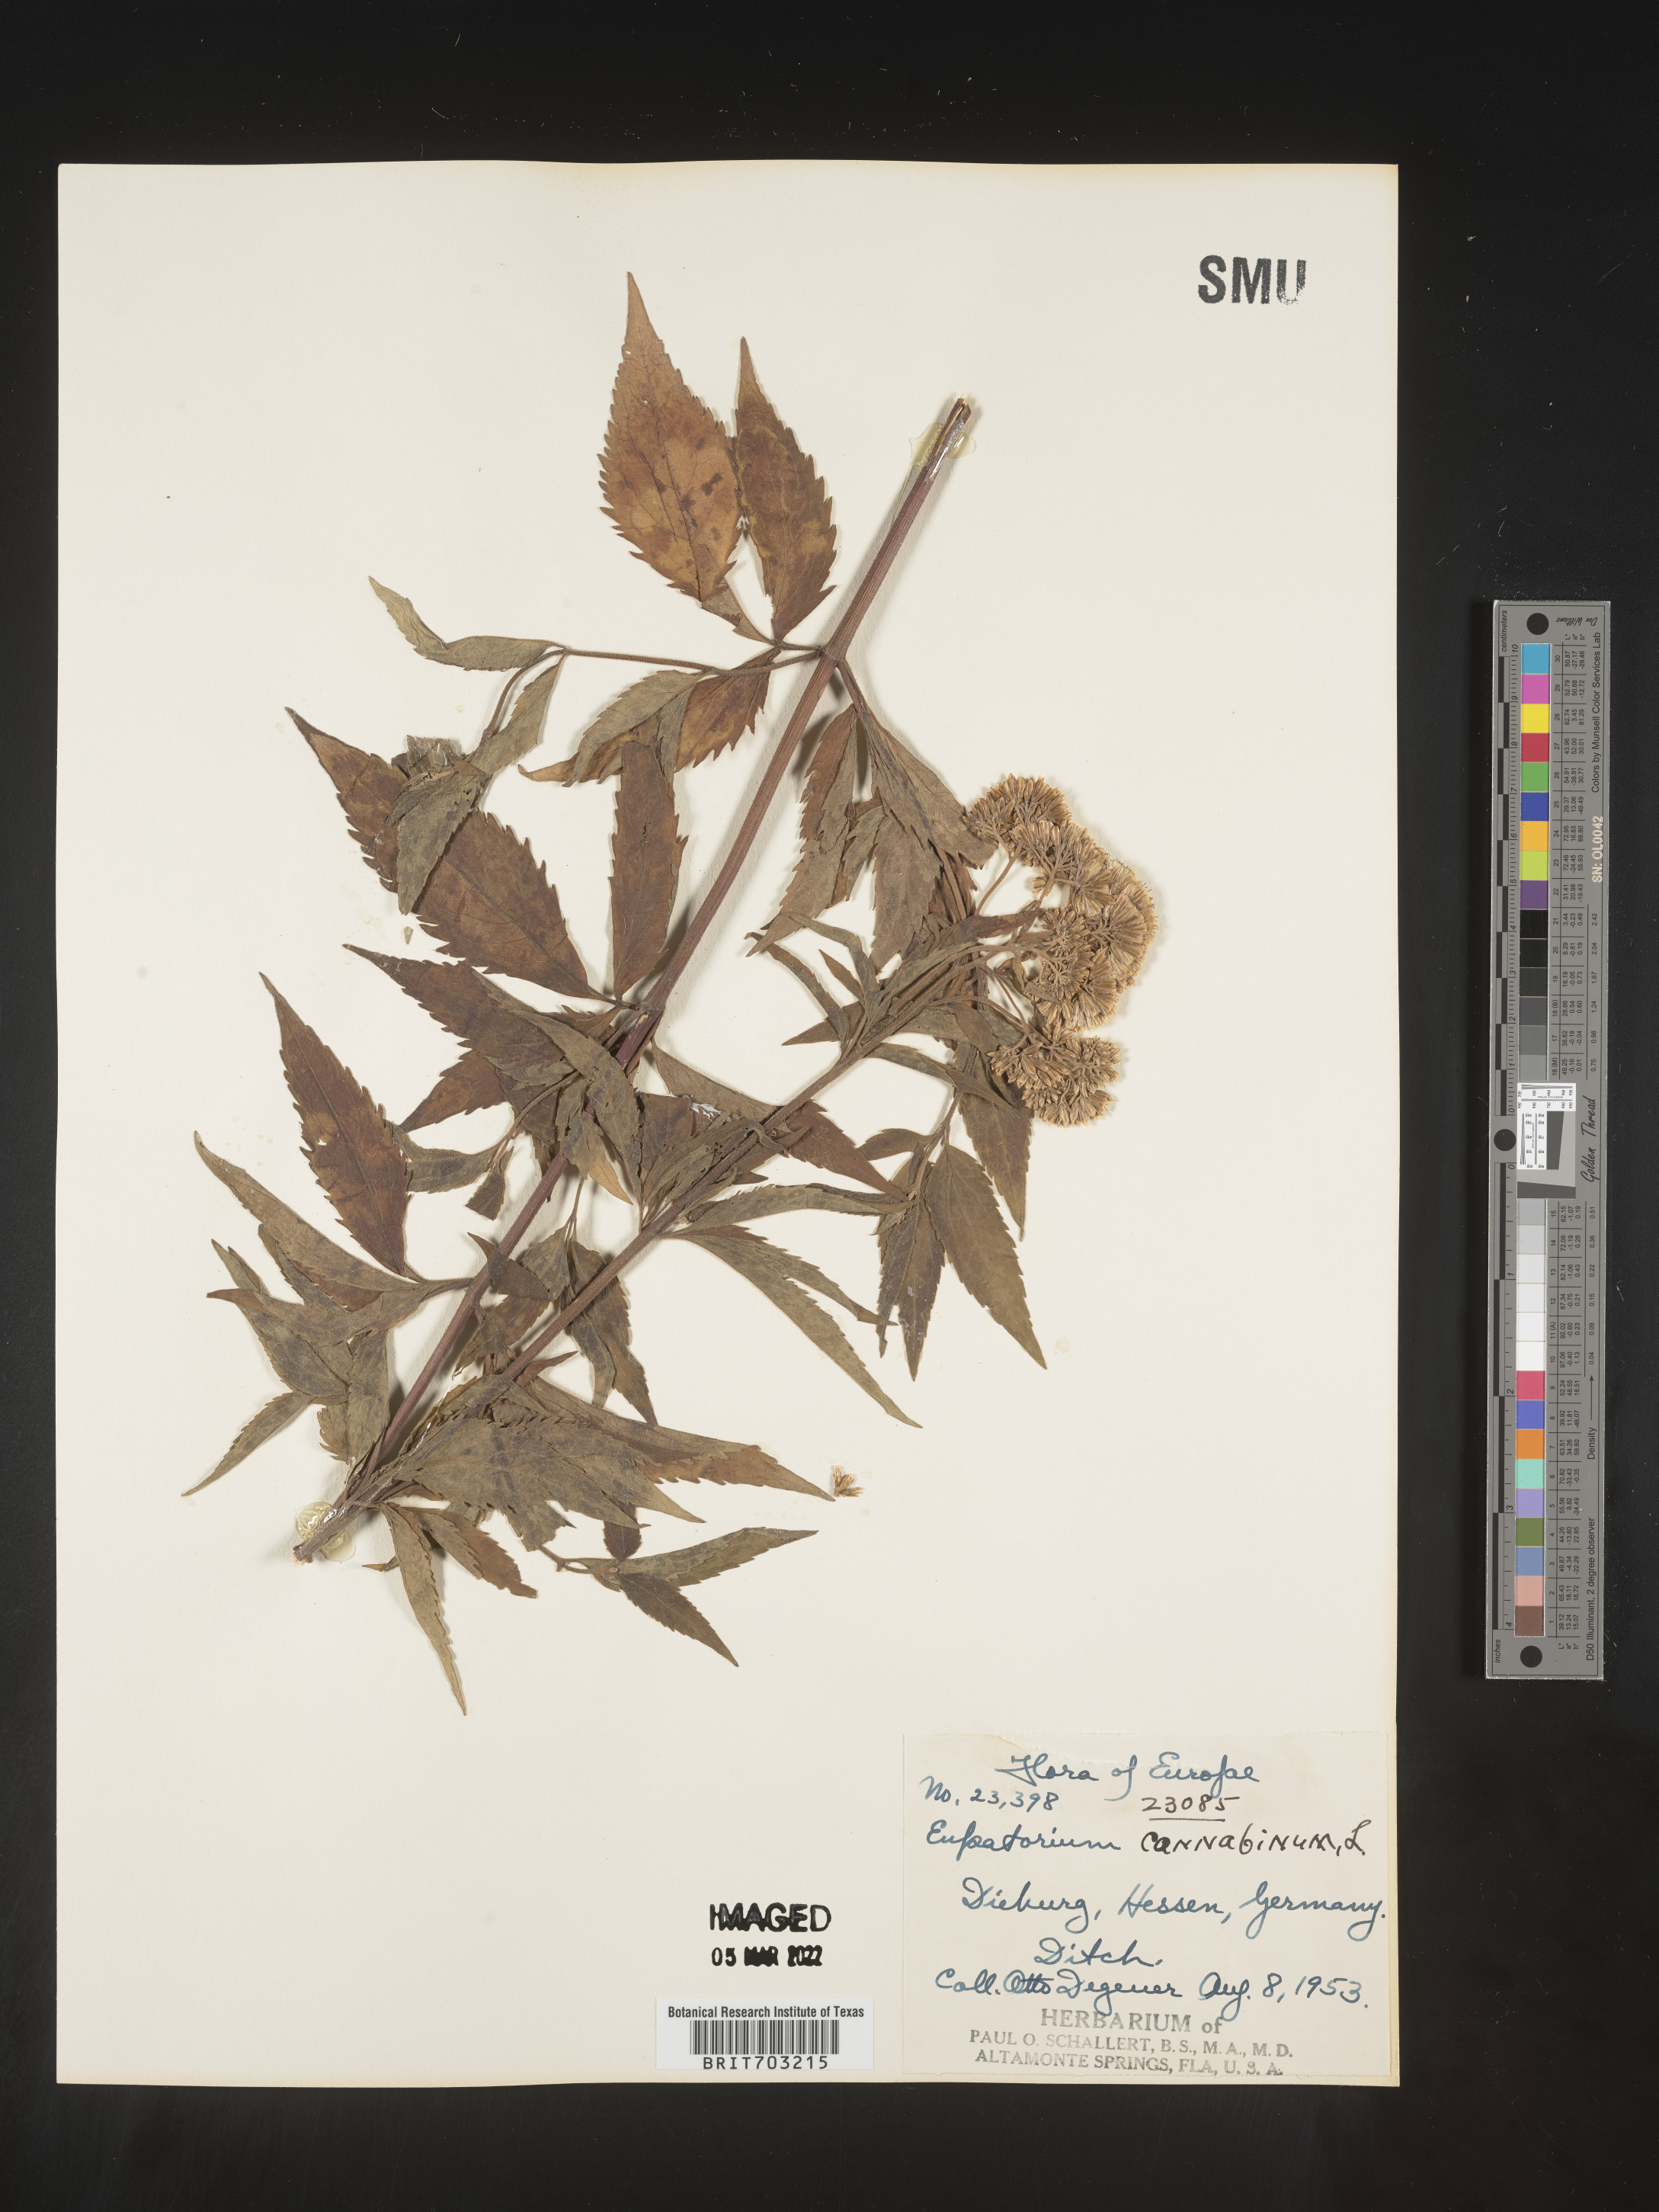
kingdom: Plantae
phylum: Tracheophyta
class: Magnoliopsida
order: Asterales
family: Asteraceae
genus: Eupatorium
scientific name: Eupatorium
